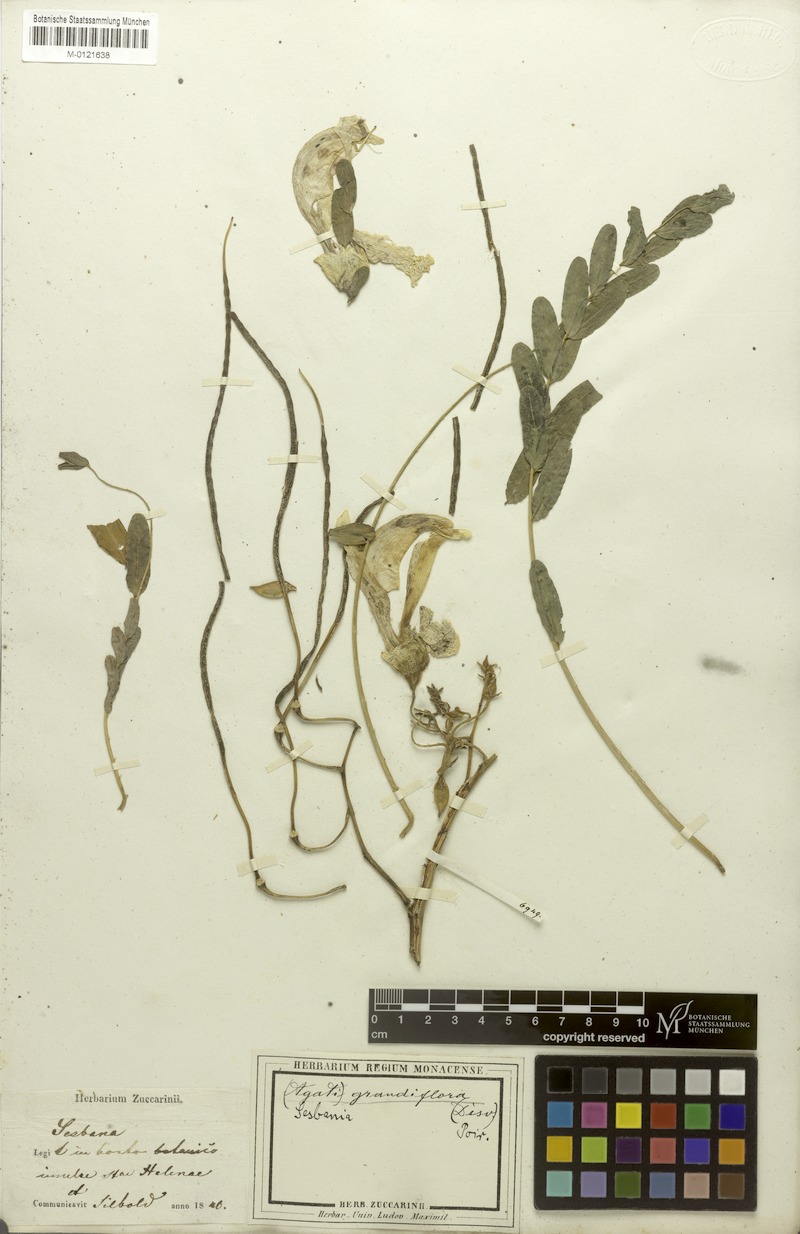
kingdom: Plantae
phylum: Tracheophyta
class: Magnoliopsida
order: Fabales
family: Fabaceae
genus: Sesbania
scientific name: Sesbania grandiflora
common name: Vegetable-hummingbird
